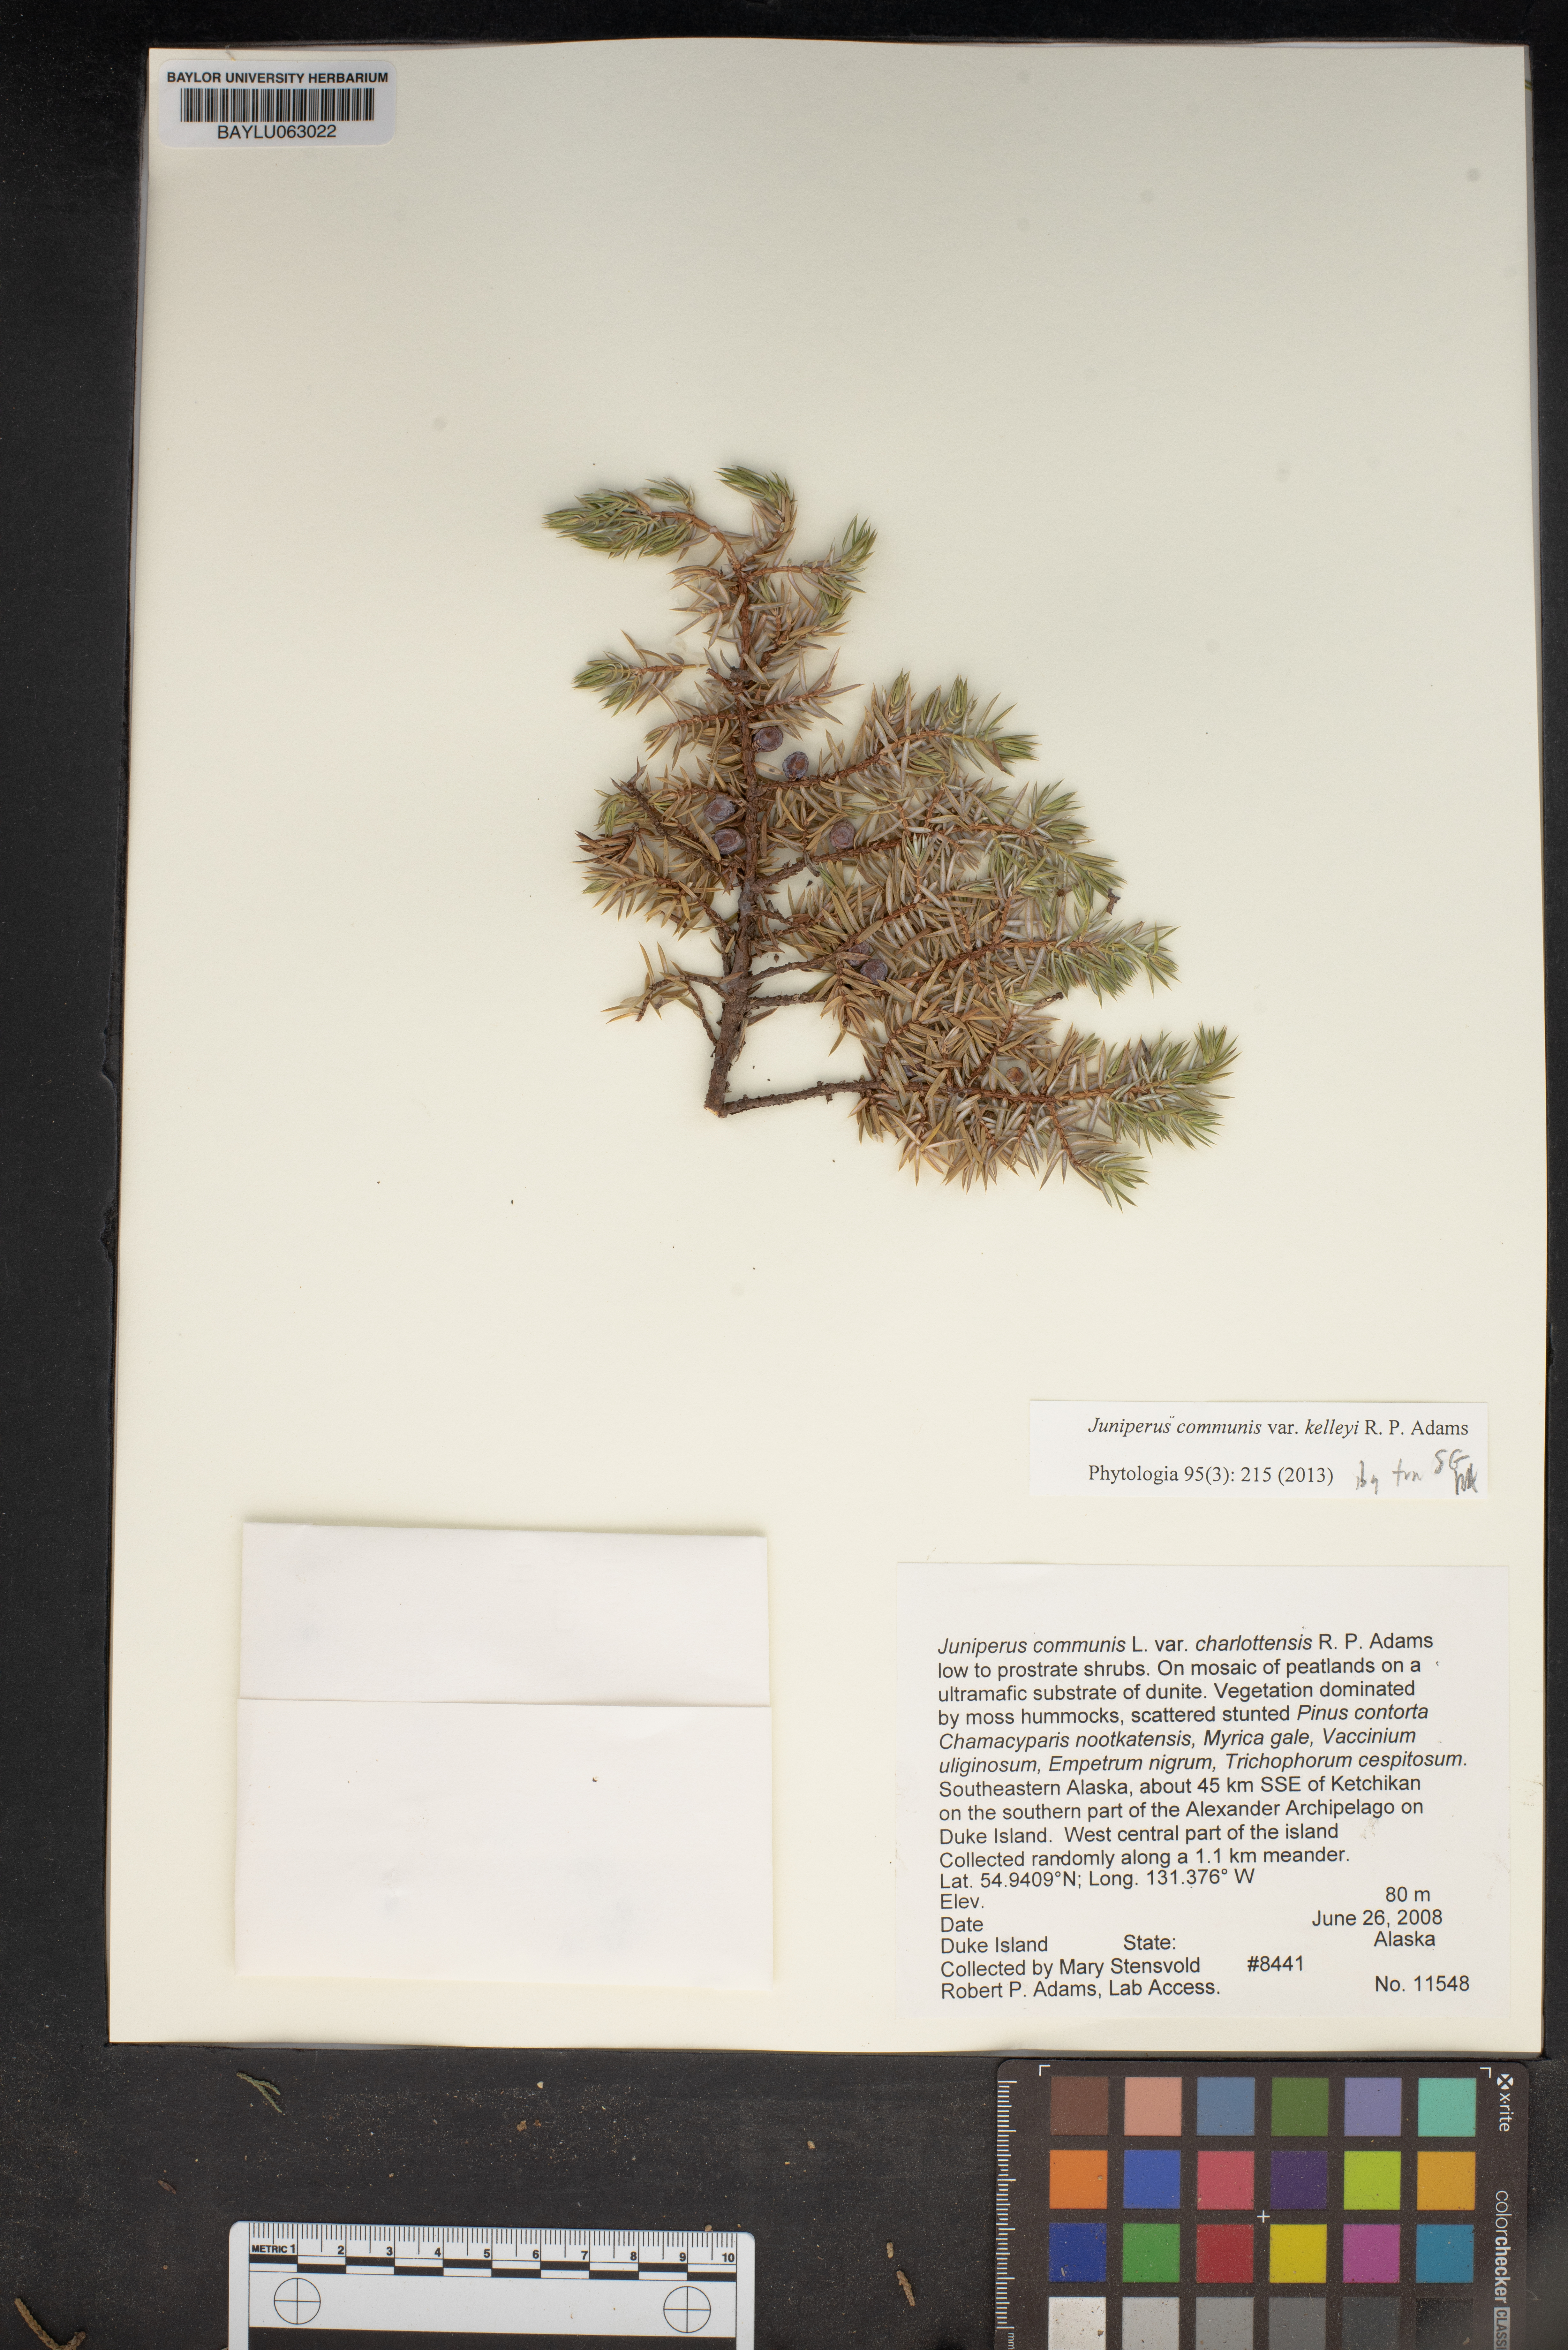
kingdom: Plantae
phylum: Tracheophyta
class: Pinopsida
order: Pinales
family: Cupressaceae
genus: Juniperus
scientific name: Juniperus communis
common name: Common juniper
